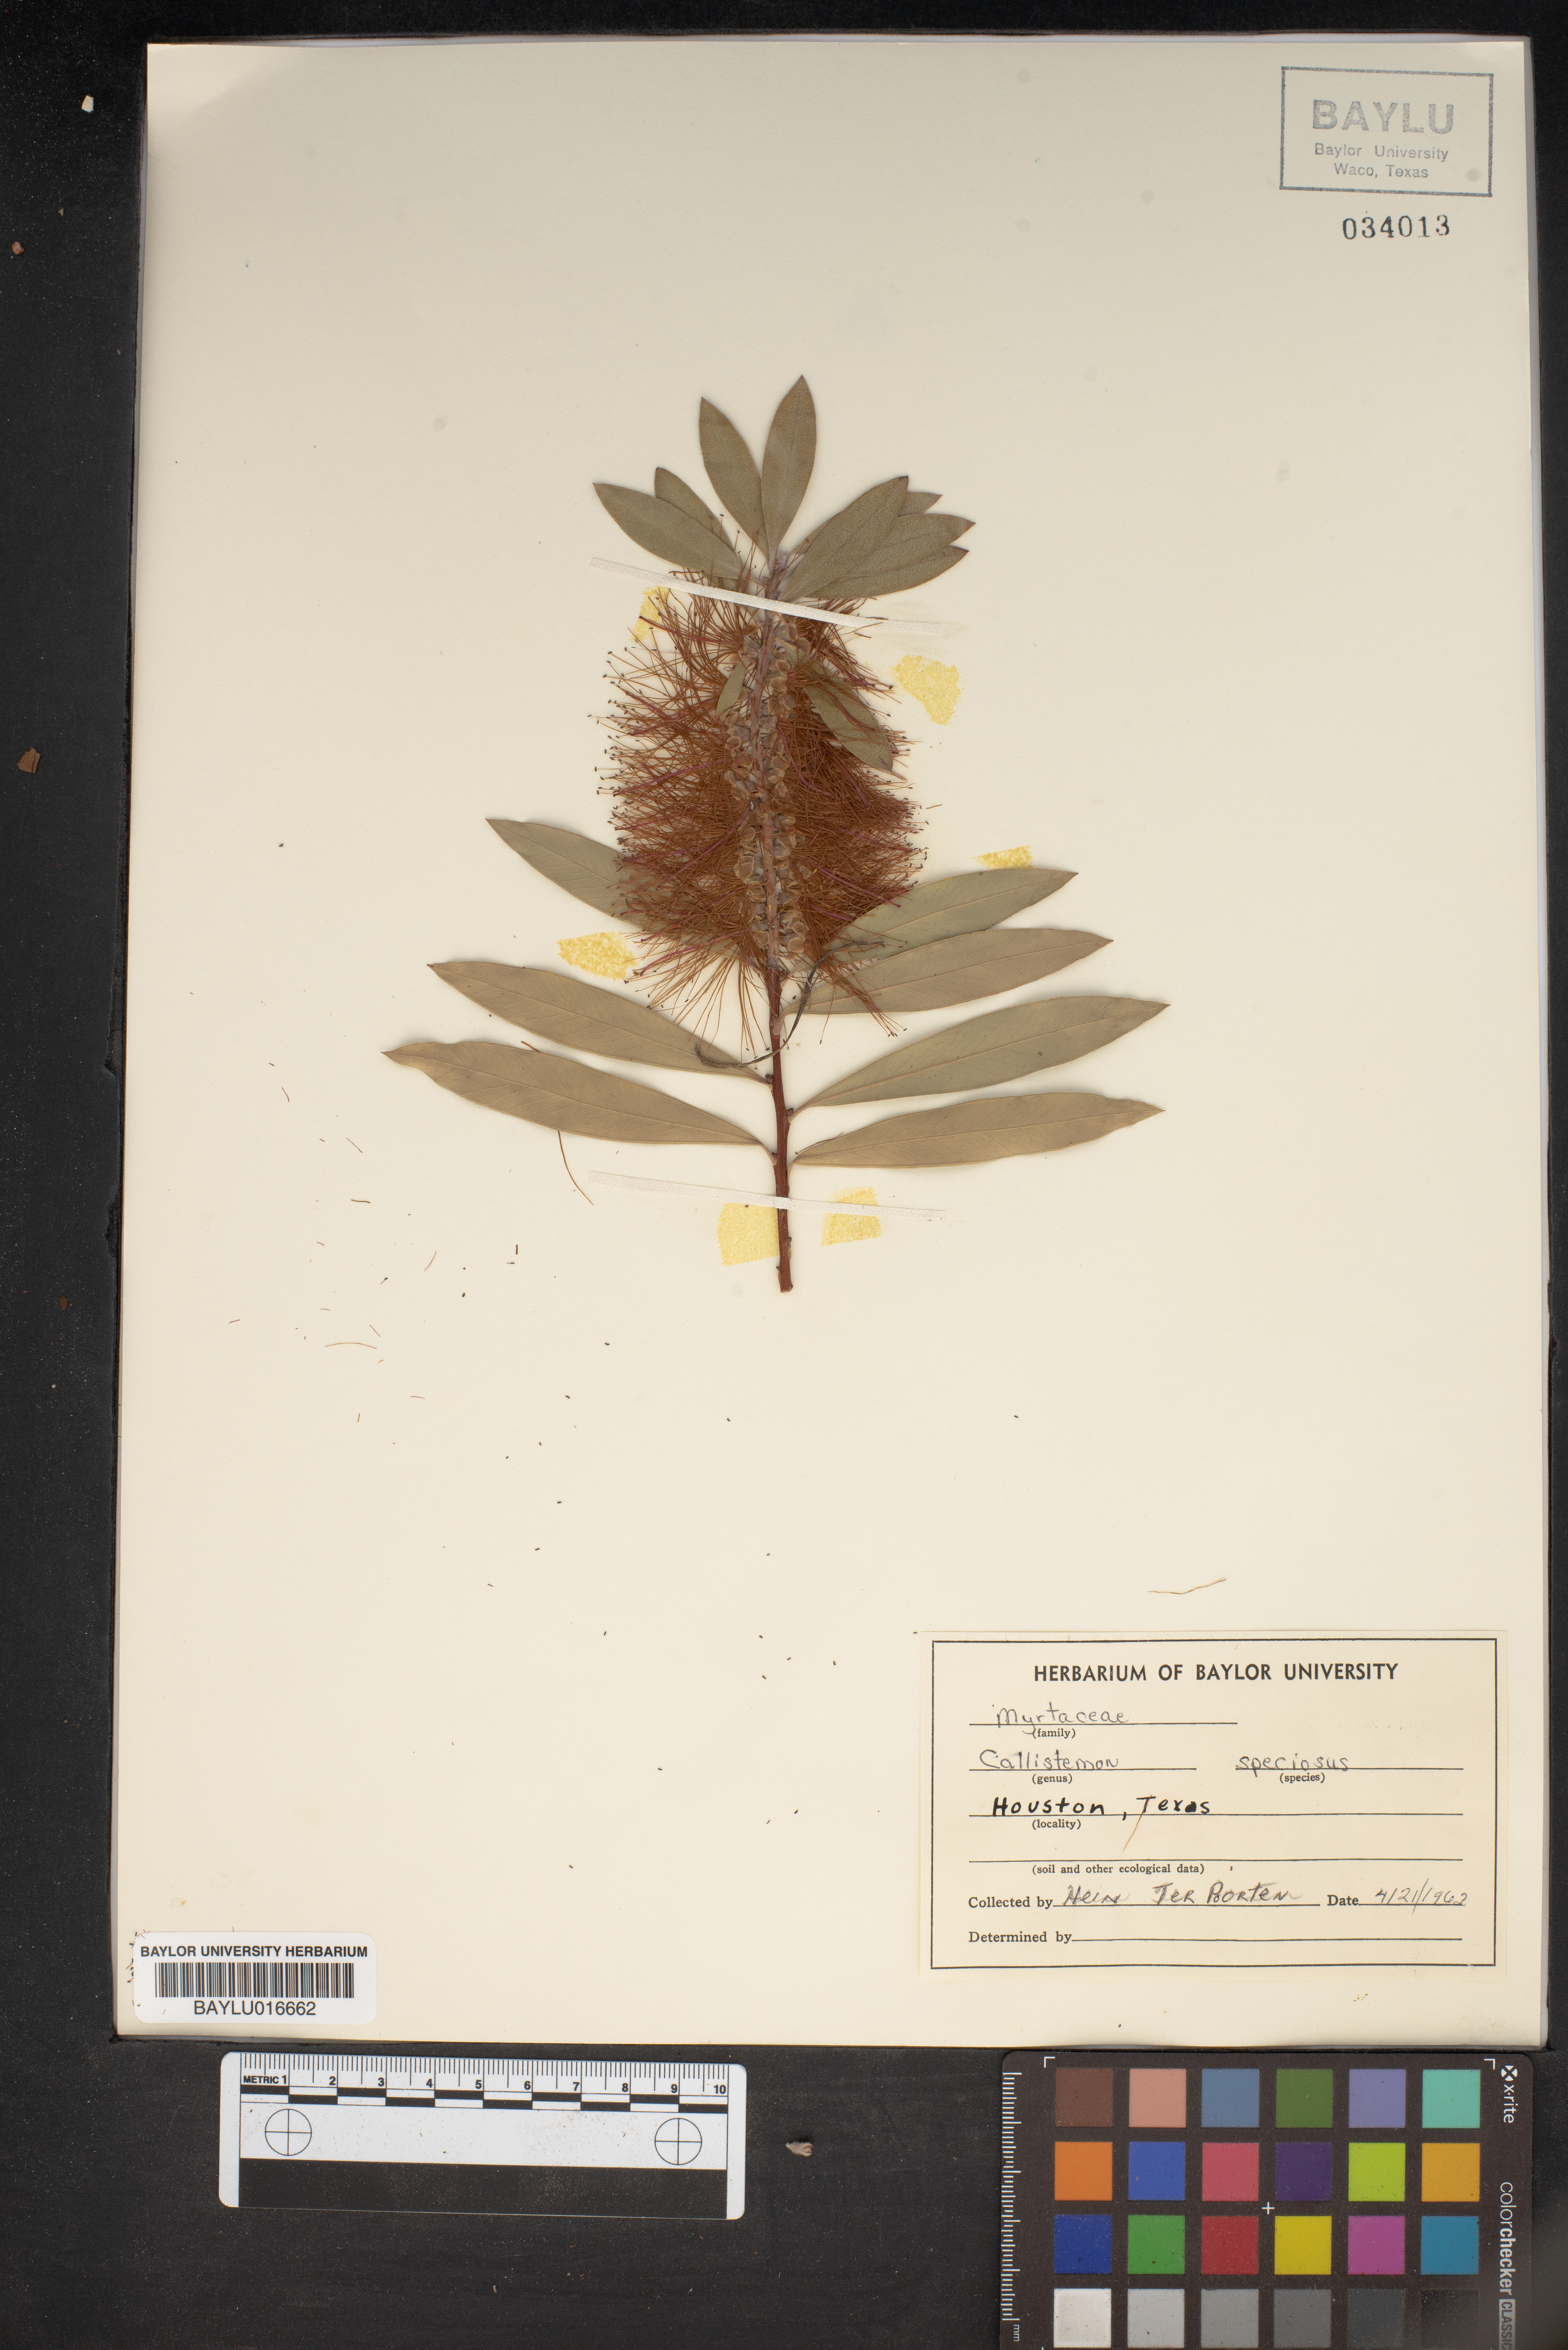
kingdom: Plantae
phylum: Tracheophyta
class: Magnoliopsida
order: Myrtales
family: Myrtaceae
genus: Callistemon
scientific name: Callistemon speciosus
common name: Albany bottlebrush
